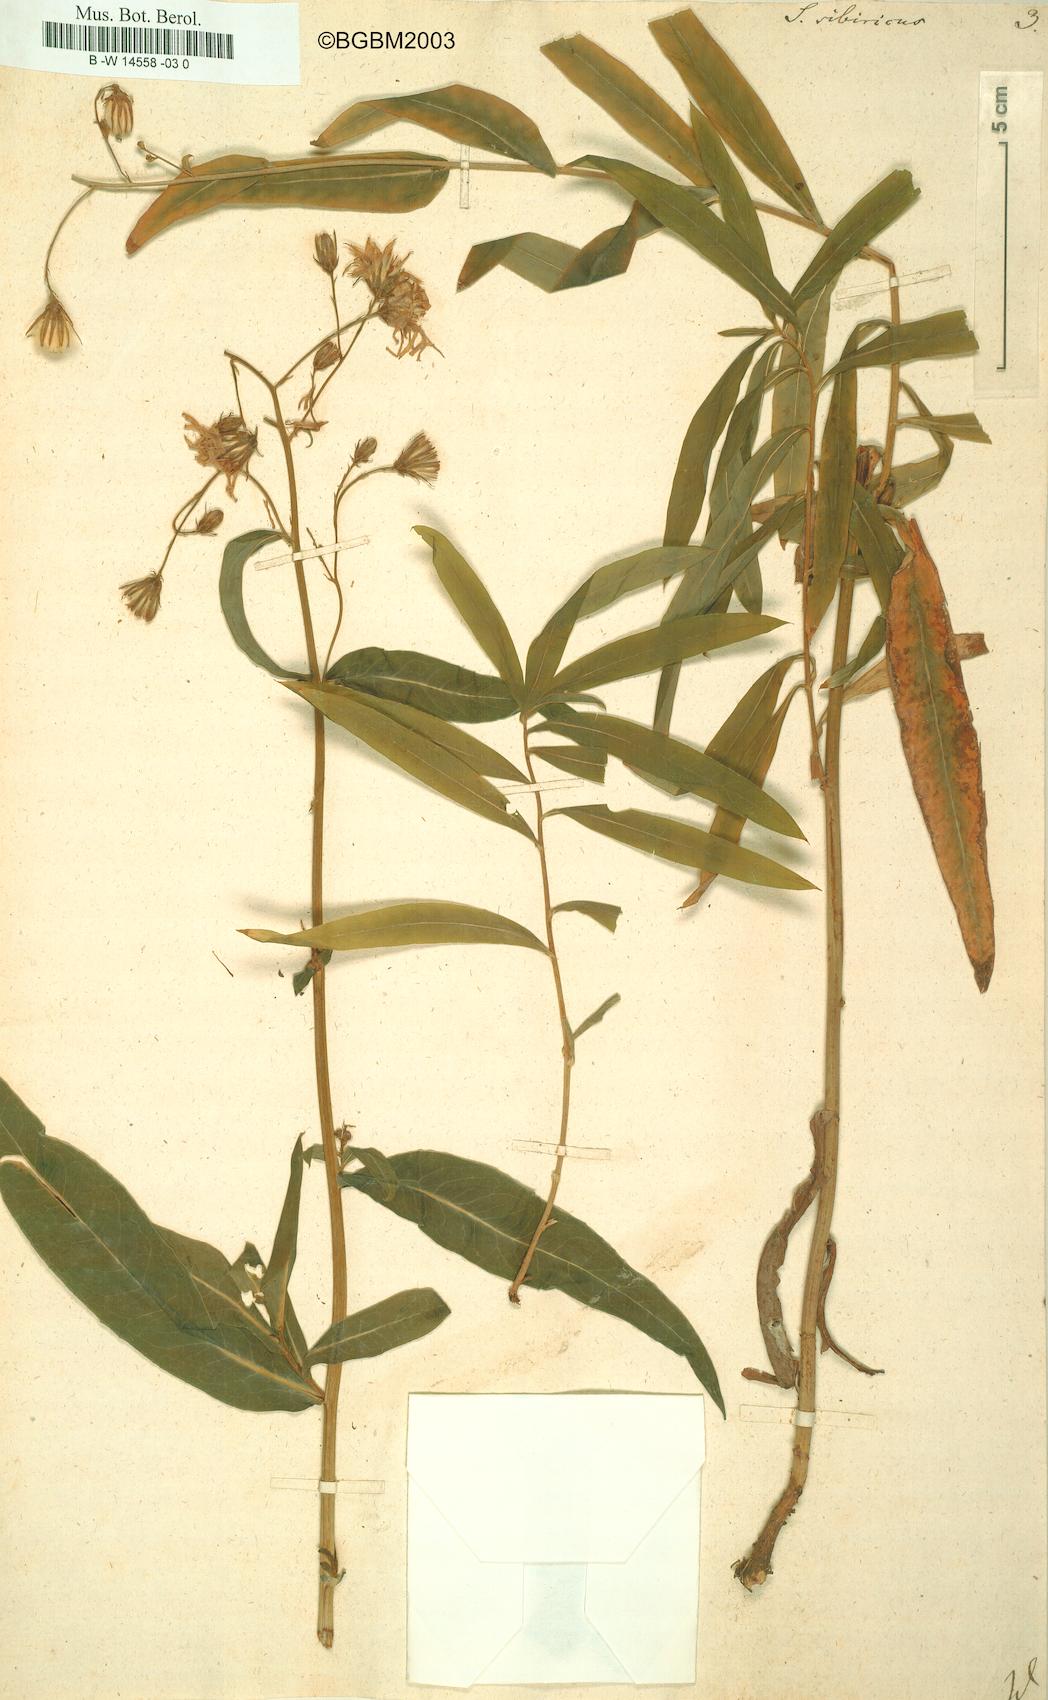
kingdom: Plantae
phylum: Tracheophyta
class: Magnoliopsida
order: Asterales
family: Asteraceae
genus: Lactuca
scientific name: Lactuca
